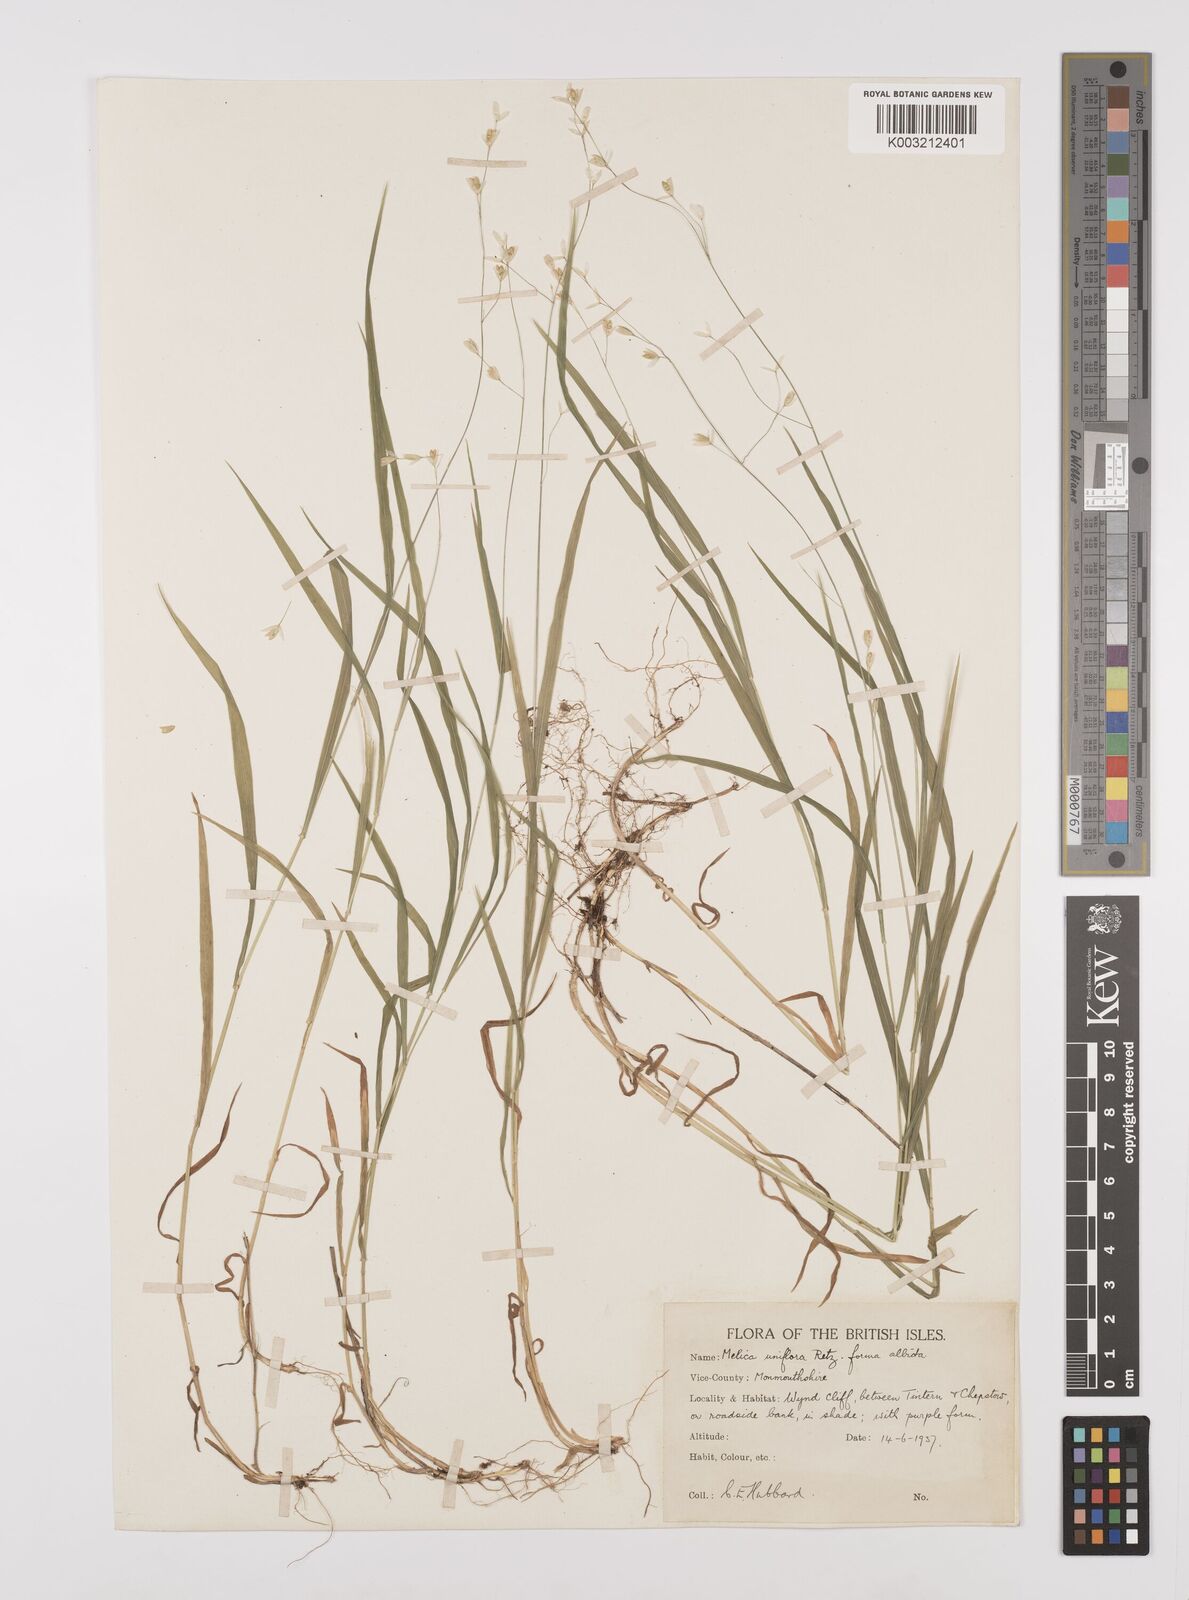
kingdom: Plantae
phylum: Tracheophyta
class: Liliopsida
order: Poales
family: Poaceae
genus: Melica
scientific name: Melica uniflora
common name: Wood melick
